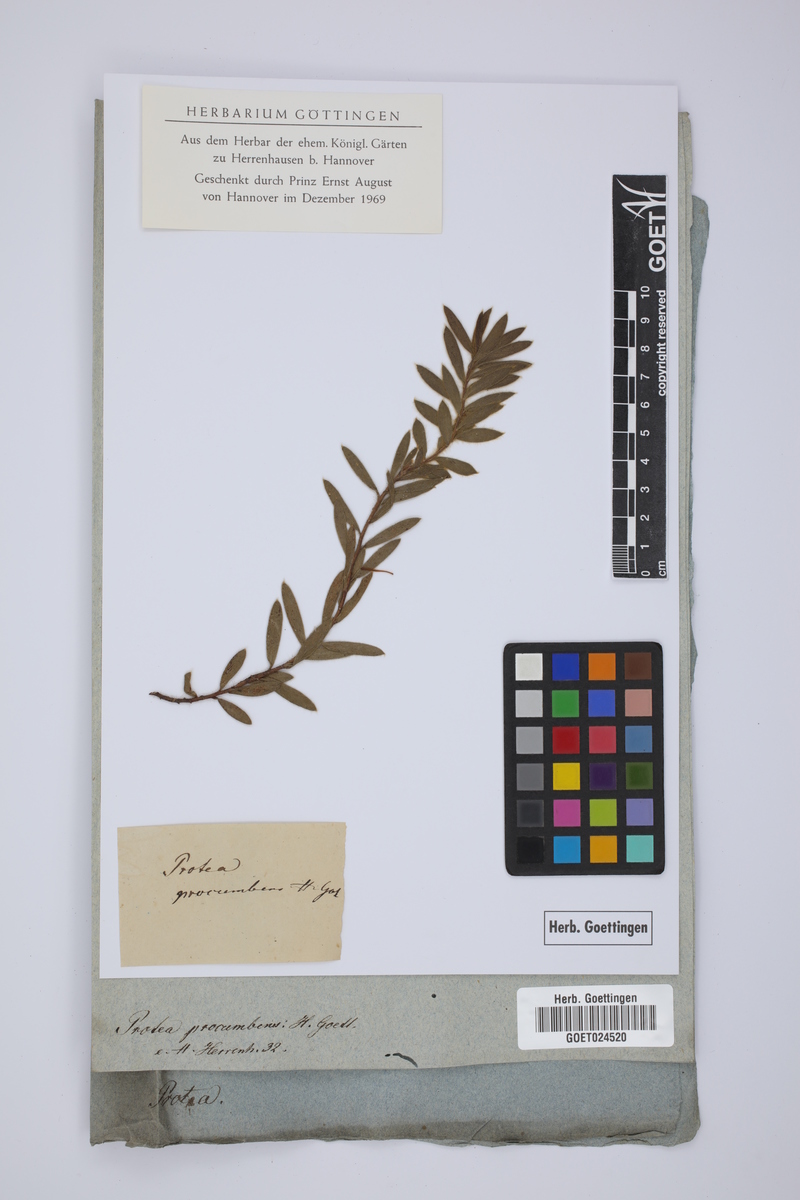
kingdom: Plantae
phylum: Tracheophyta
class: Magnoliopsida
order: Proteales
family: Proteaceae
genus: Serruria
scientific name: Serruria decumbens
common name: Peninsula spiderhead
